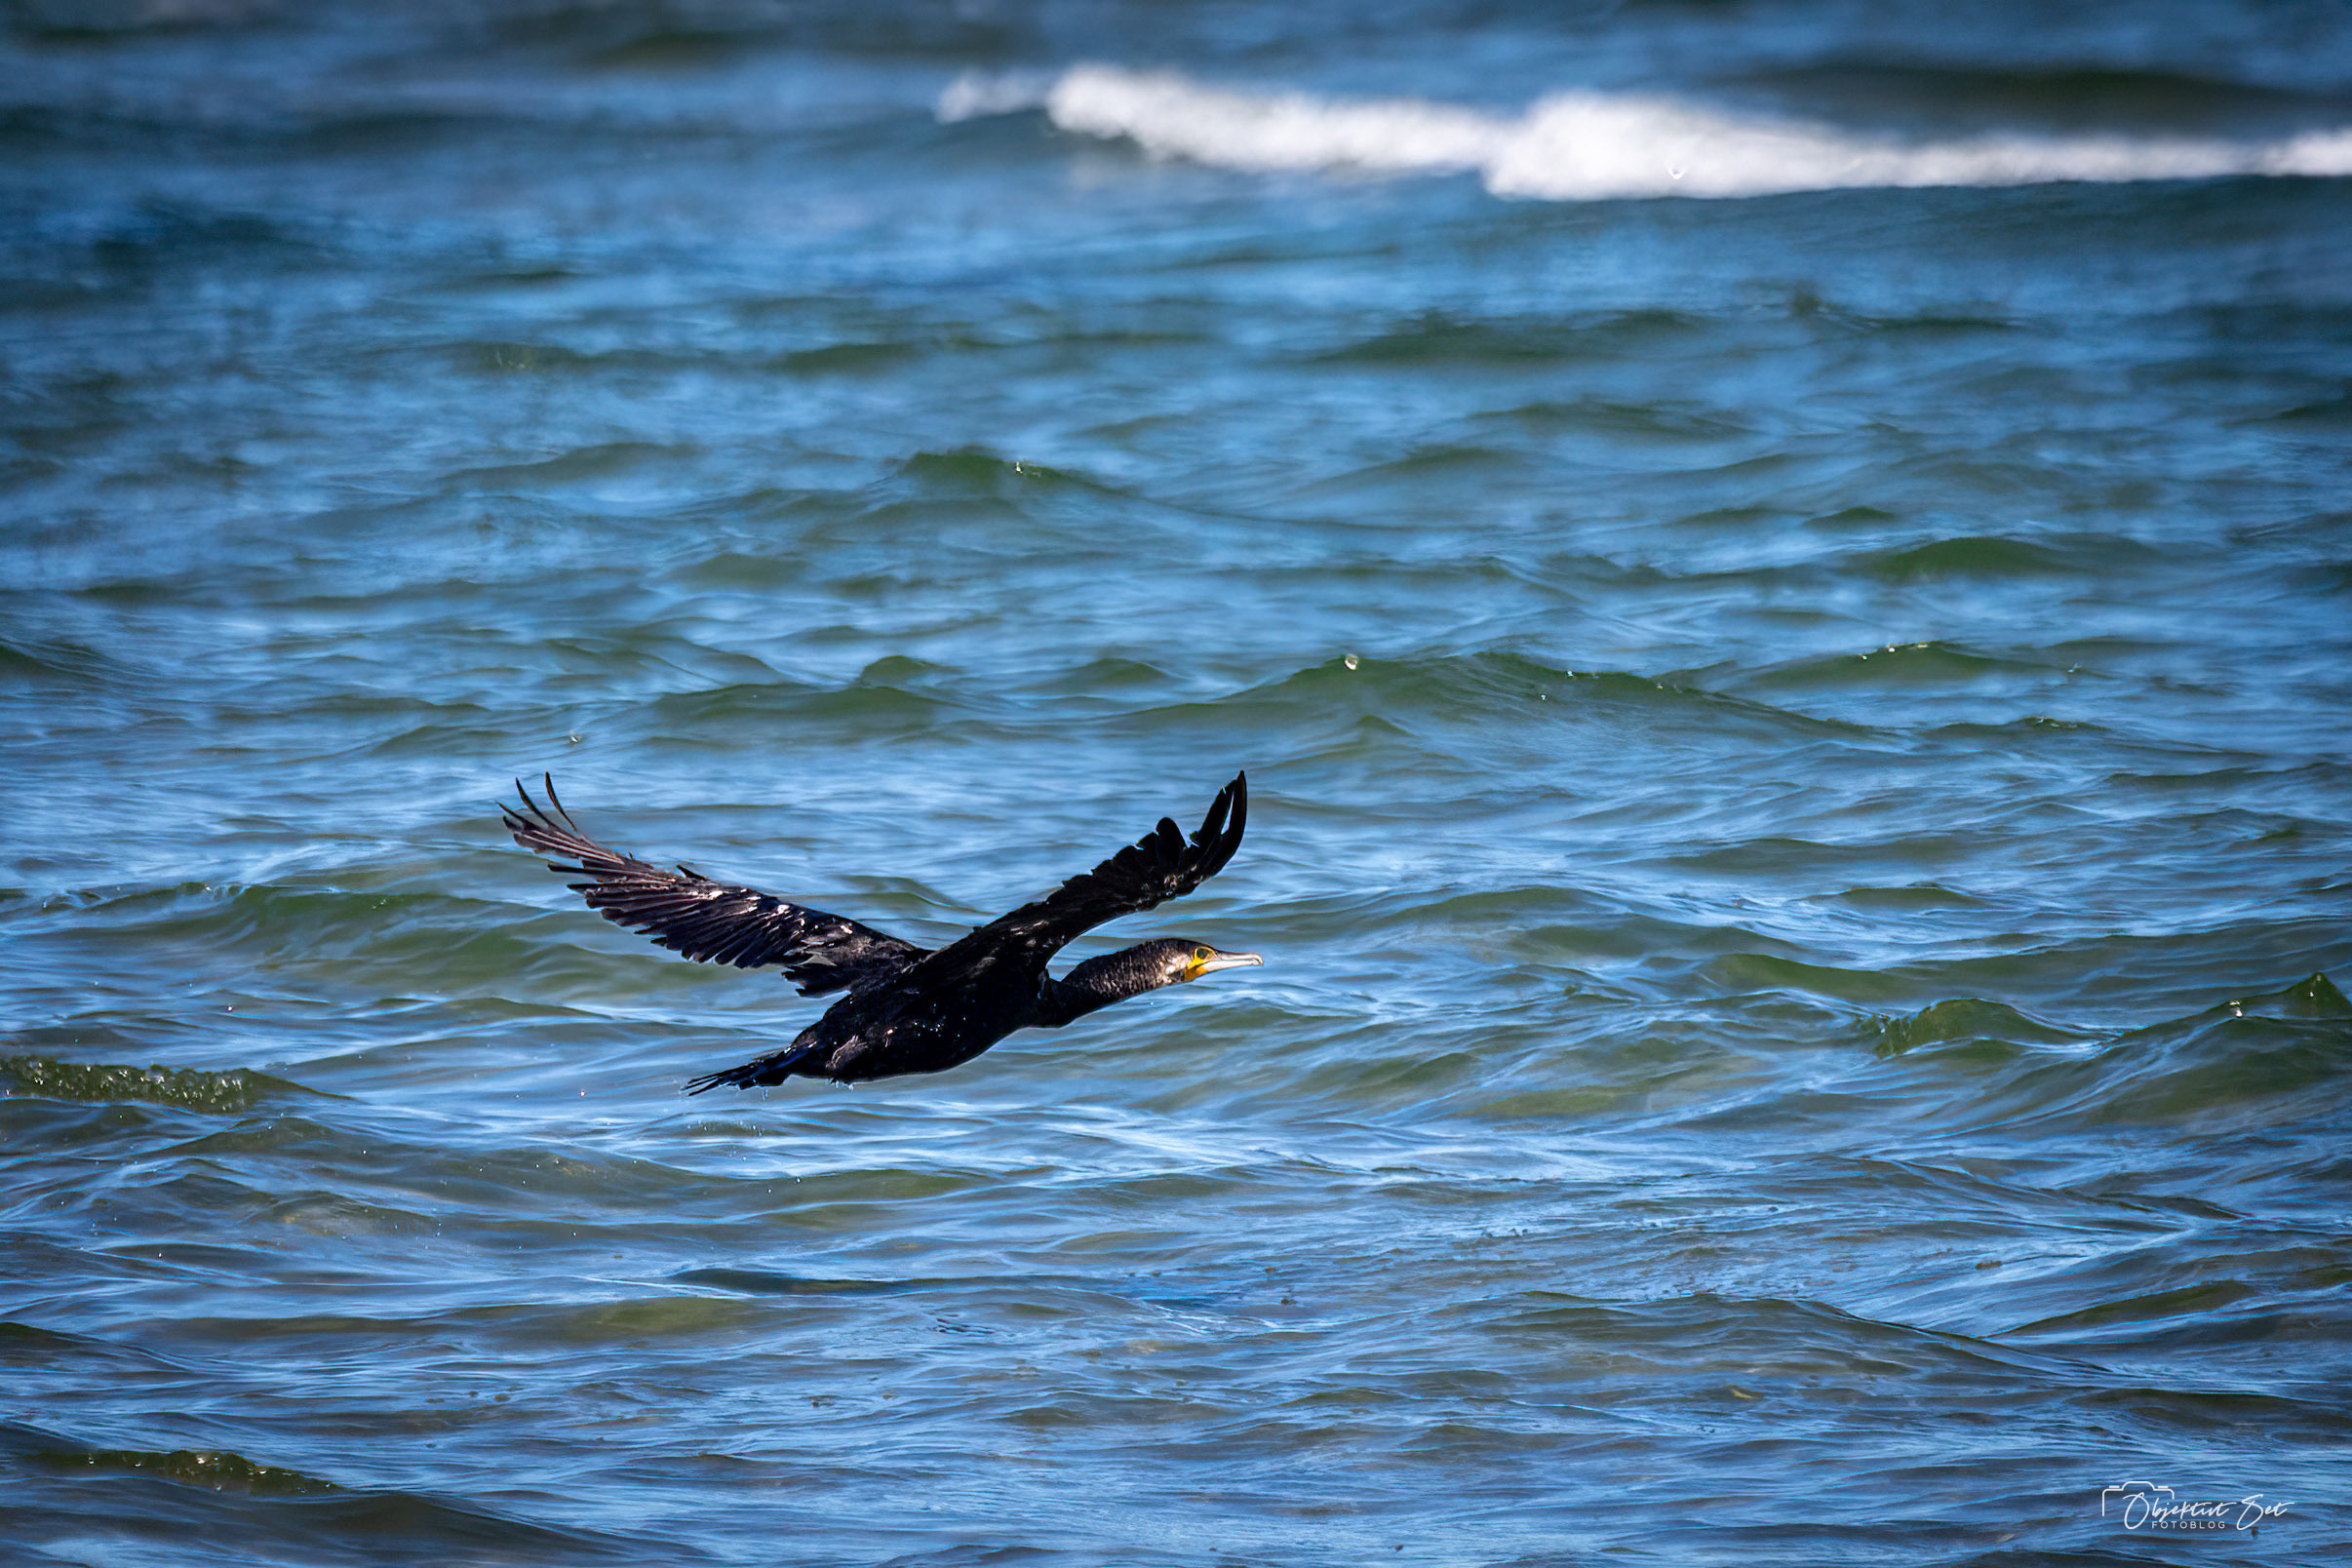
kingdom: Animalia
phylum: Chordata
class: Aves
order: Suliformes
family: Phalacrocoracidae
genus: Phalacrocorax
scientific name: Phalacrocorax carbo
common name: Skarv
